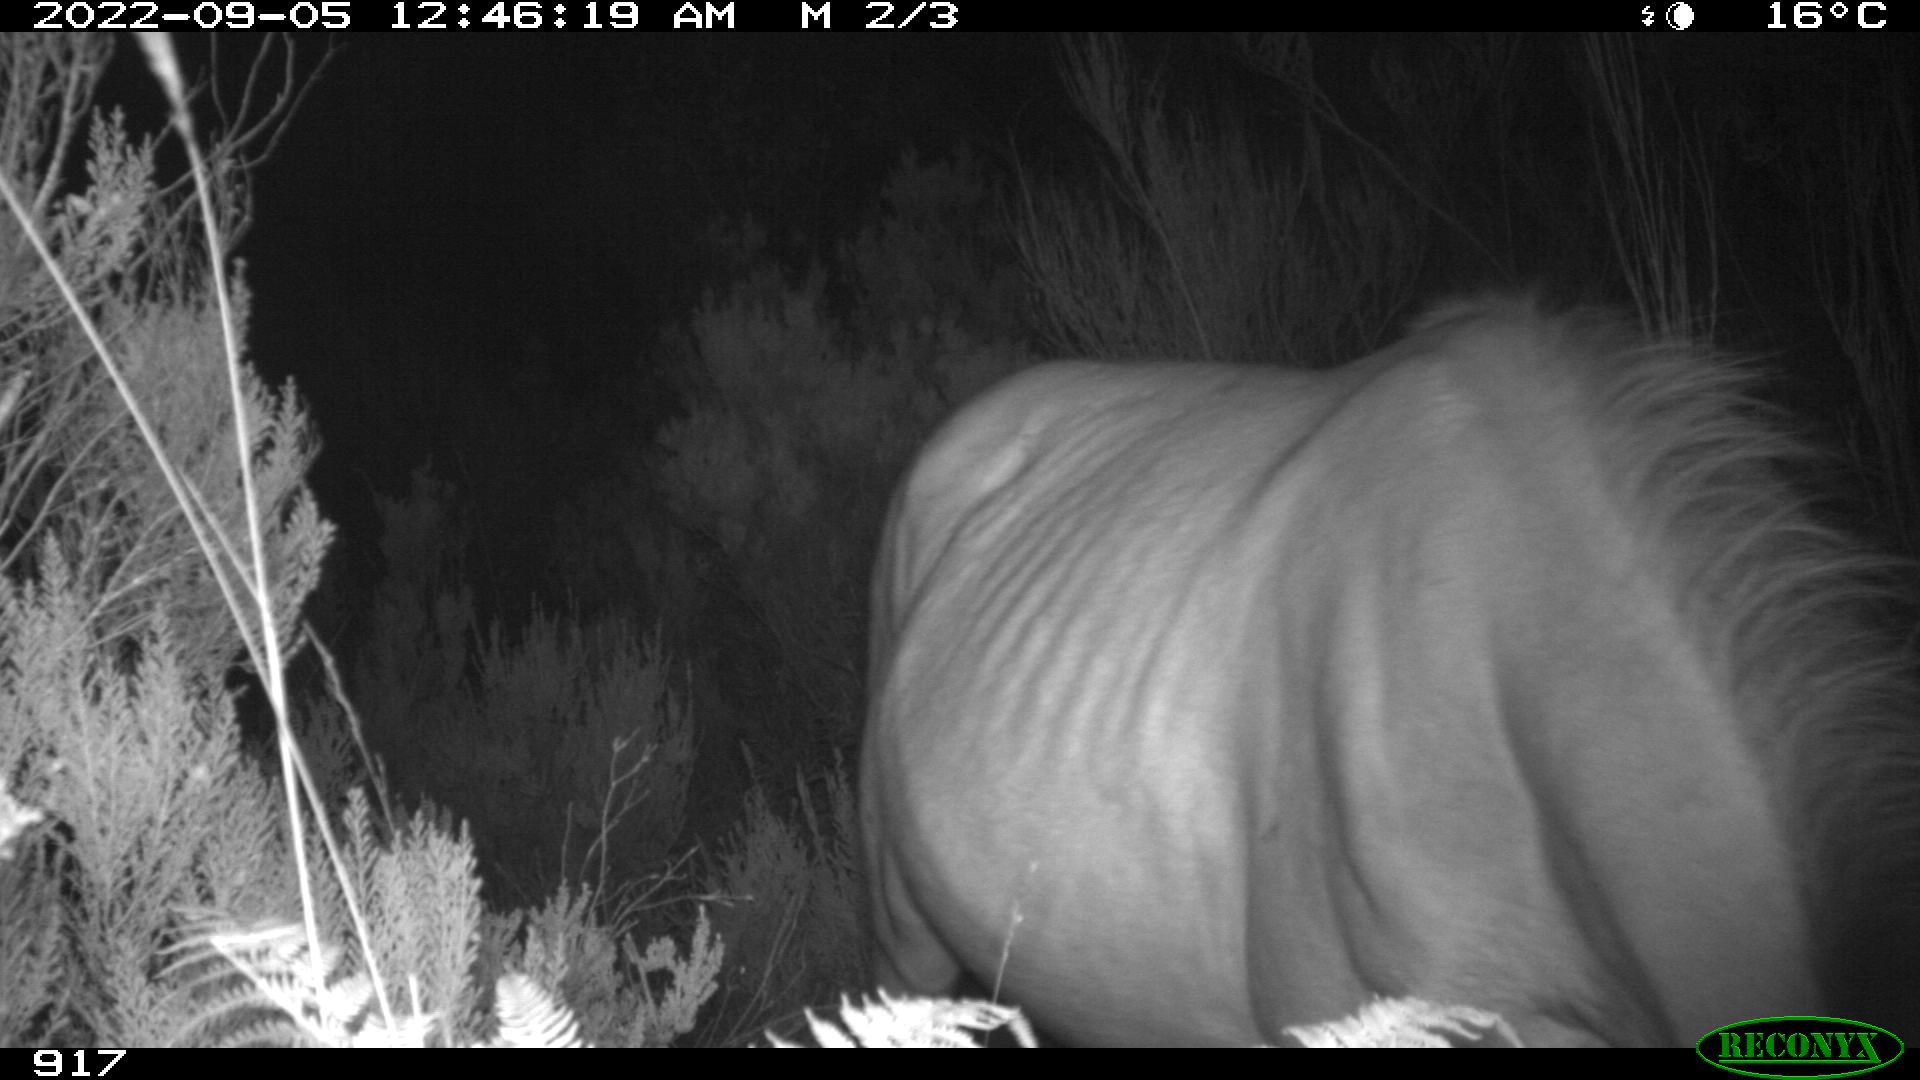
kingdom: Animalia
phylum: Chordata
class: Mammalia
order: Perissodactyla
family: Equidae
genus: Equus
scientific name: Equus caballus
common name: Horse
